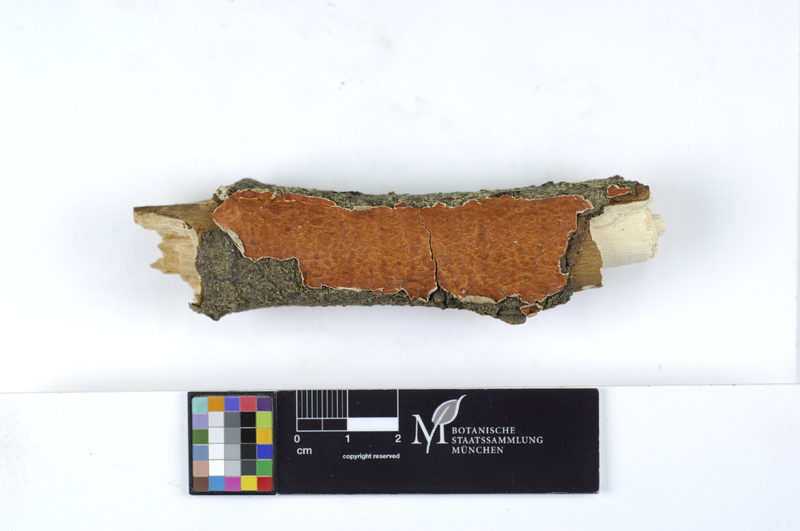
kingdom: Fungi
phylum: Basidiomycota
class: Agaricomycetes
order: Polyporales
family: Irpicaceae
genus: Byssomerulius
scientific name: Byssomerulius corium
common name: Netted crust
